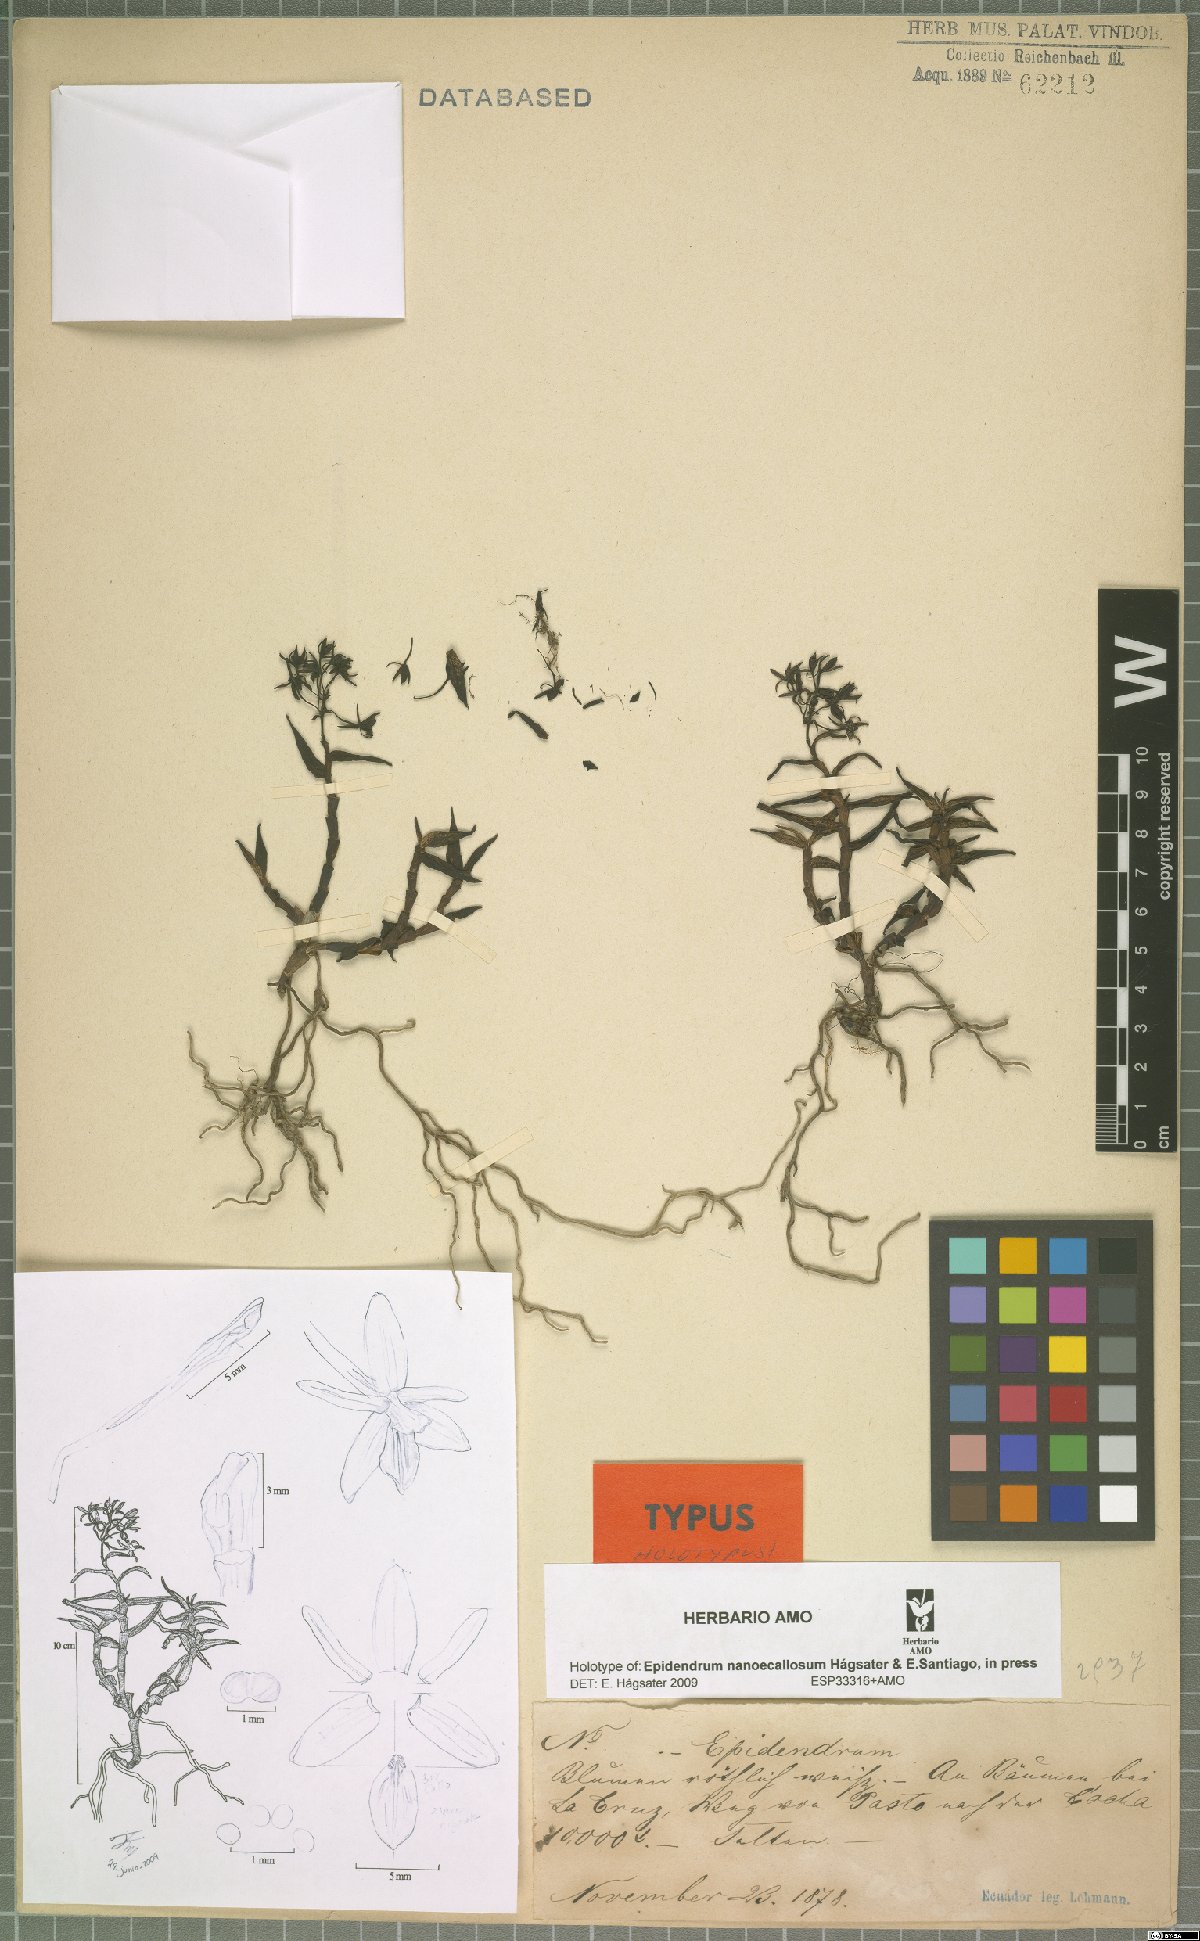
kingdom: Plantae
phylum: Tracheophyta
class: Liliopsida
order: Asparagales
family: Orchidaceae
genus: Epidendrum
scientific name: Epidendrum nanoecallosum
